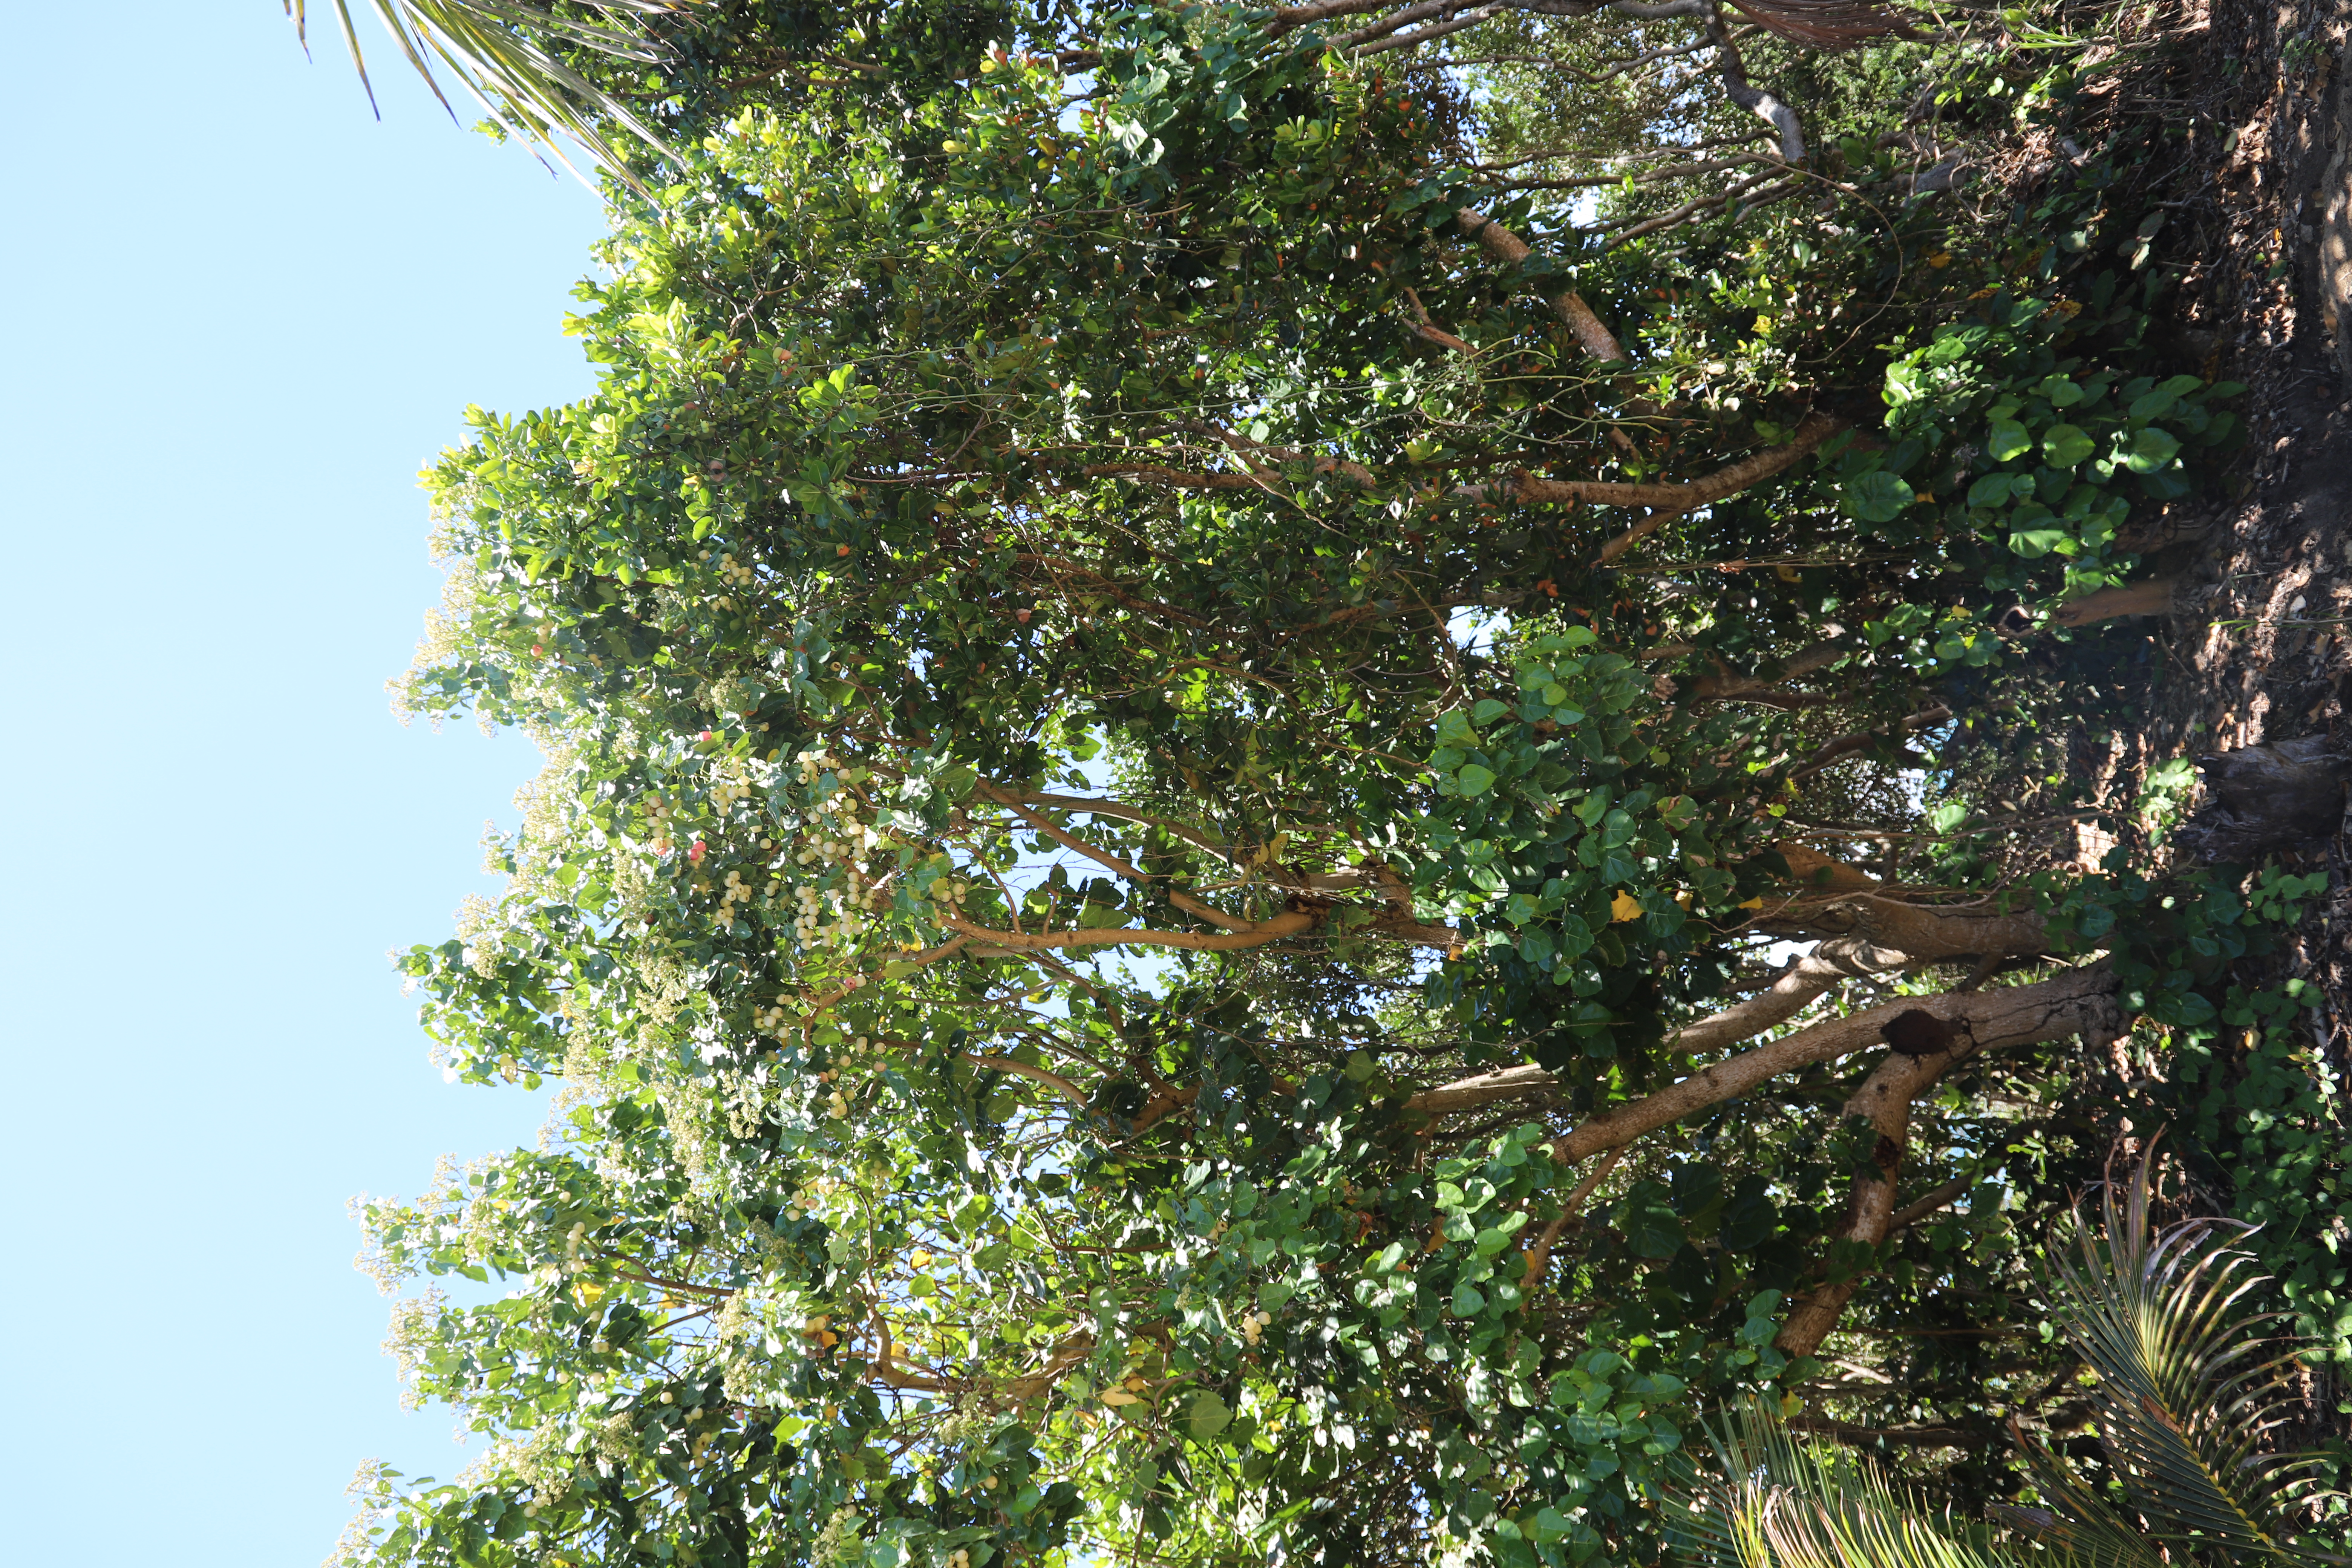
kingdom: Plantae
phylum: Tracheophyta
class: Magnoliopsida
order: Laurales
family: Hernandiaceae
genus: Hernandia
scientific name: Hernandia nymphaeifolia
